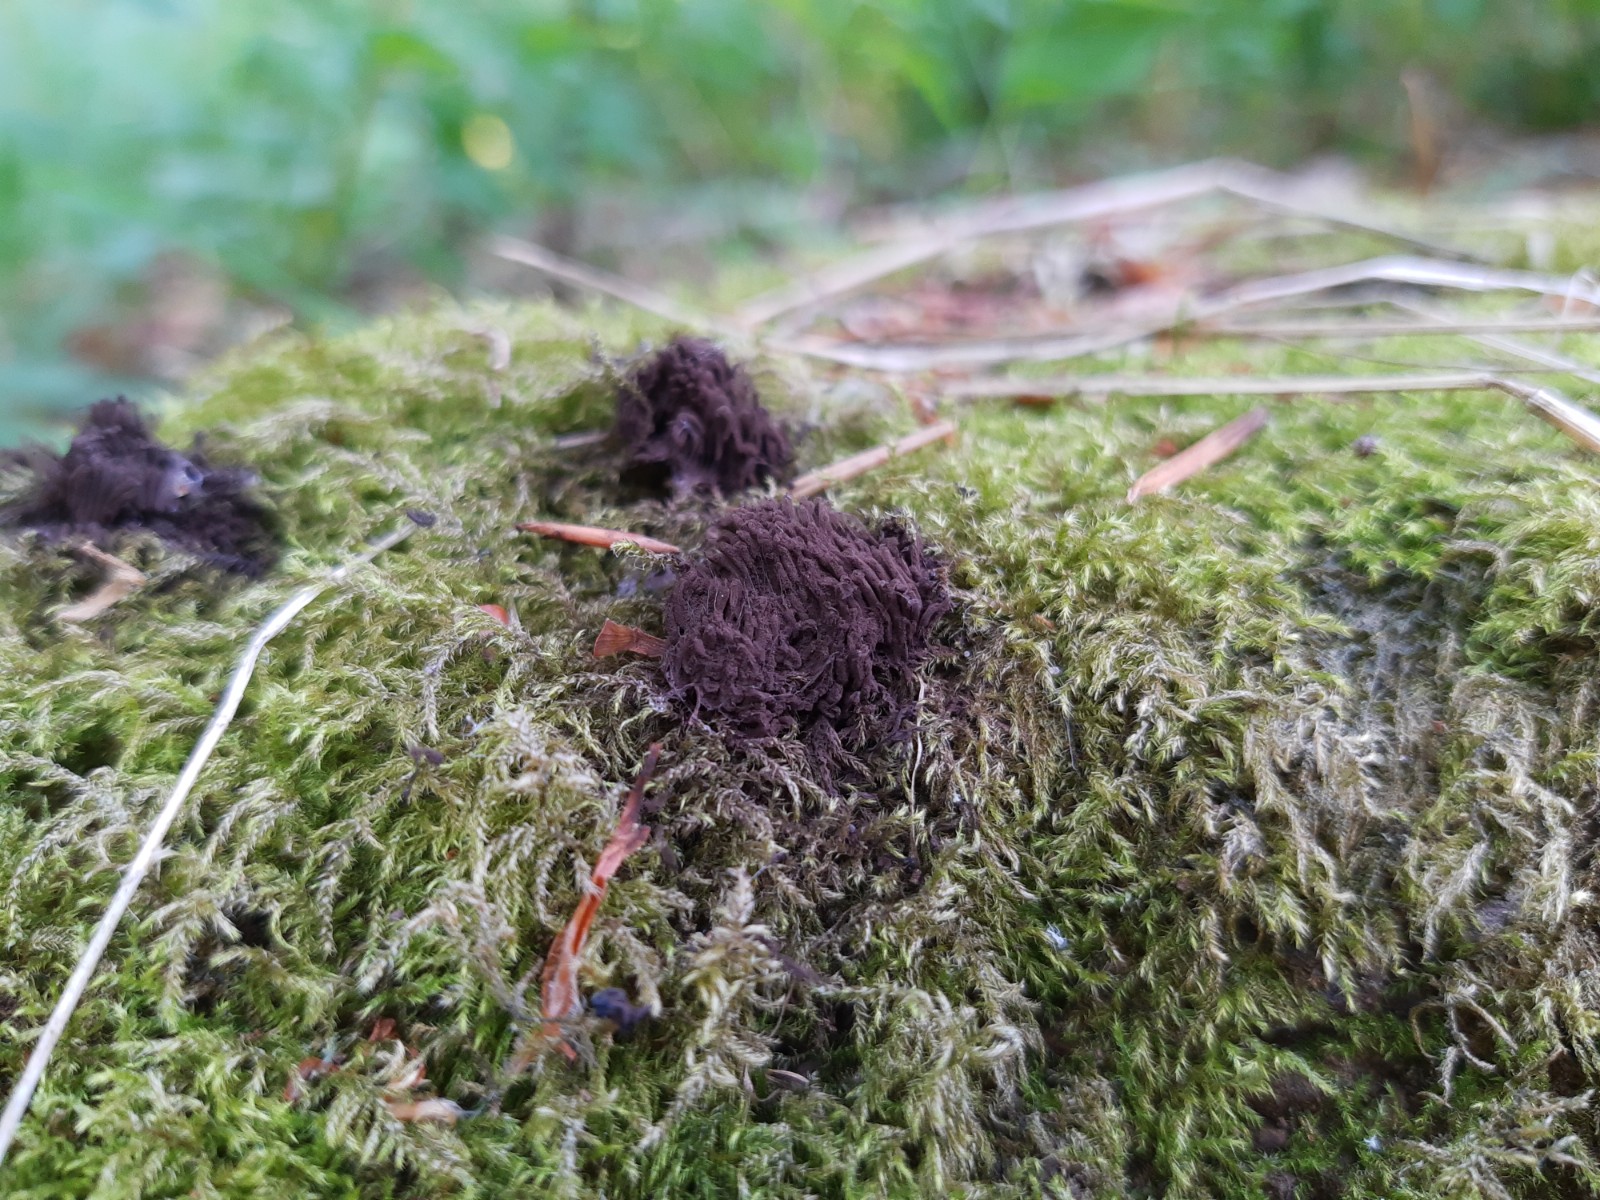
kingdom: Protozoa
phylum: Mycetozoa
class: Myxomycetes
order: Stemonitidales
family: Stemonitidaceae
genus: Stemonitis
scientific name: Stemonitis fusca
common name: sodbrun støvkølle
